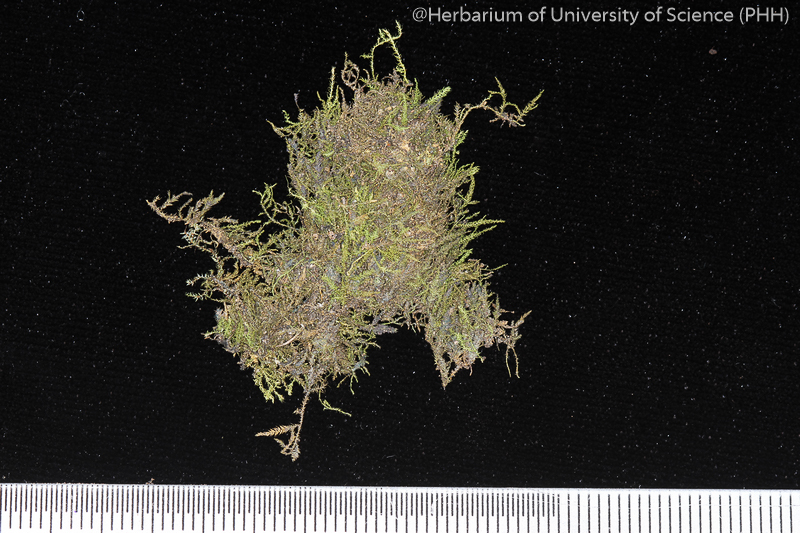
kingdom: Plantae
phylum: Bryophyta
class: Bryopsida
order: Hypnales
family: Brachytheciaceae
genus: Claopodium
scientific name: Claopodium prionophyllum
